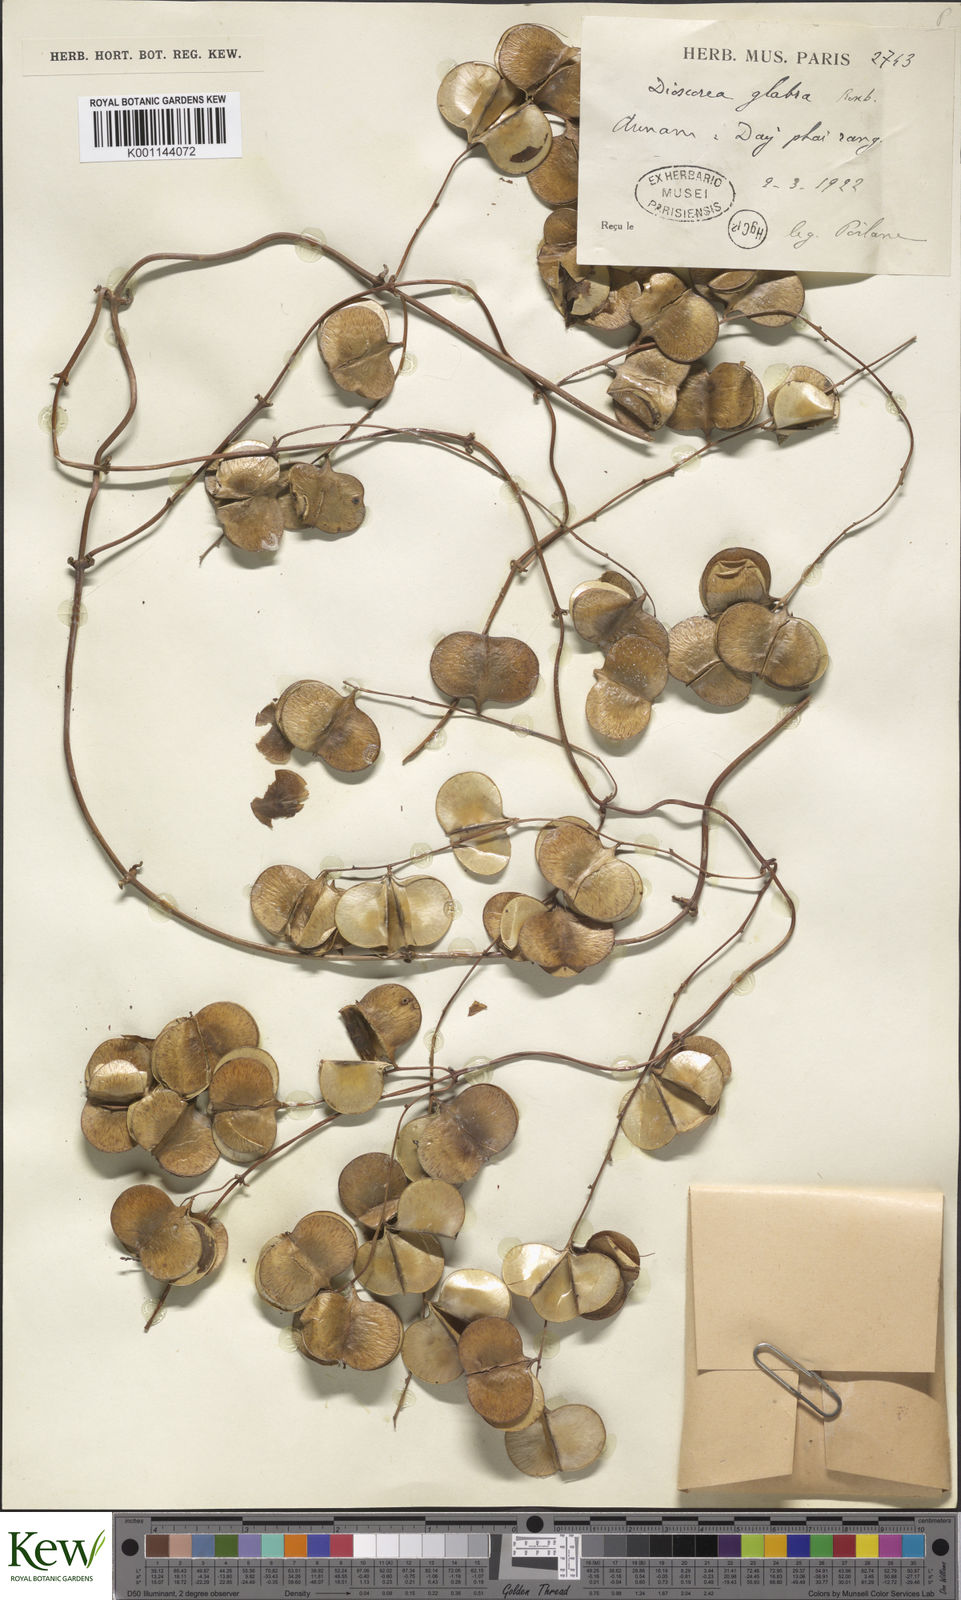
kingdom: Plantae
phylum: Tracheophyta
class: Liliopsida
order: Dioscoreales
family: Dioscoreaceae
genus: Dioscorea
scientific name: Dioscorea glabra
